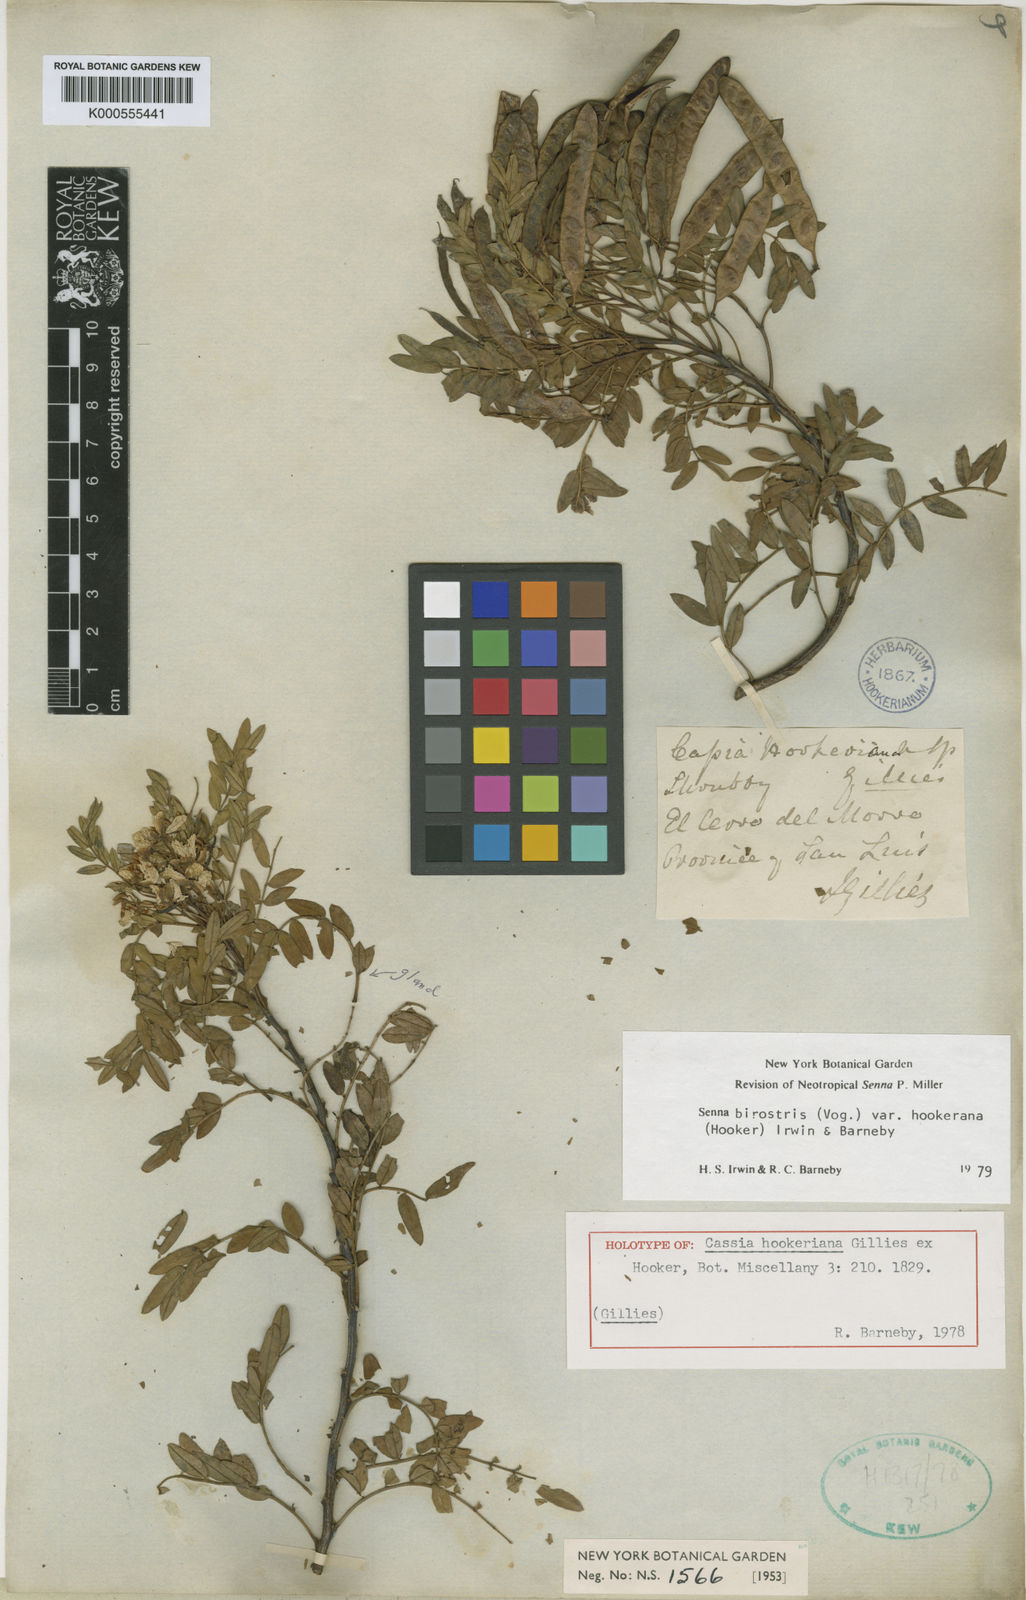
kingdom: Plantae
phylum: Tracheophyta
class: Magnoliopsida
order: Fabales
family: Fabaceae
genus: Senna
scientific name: Senna birostris
